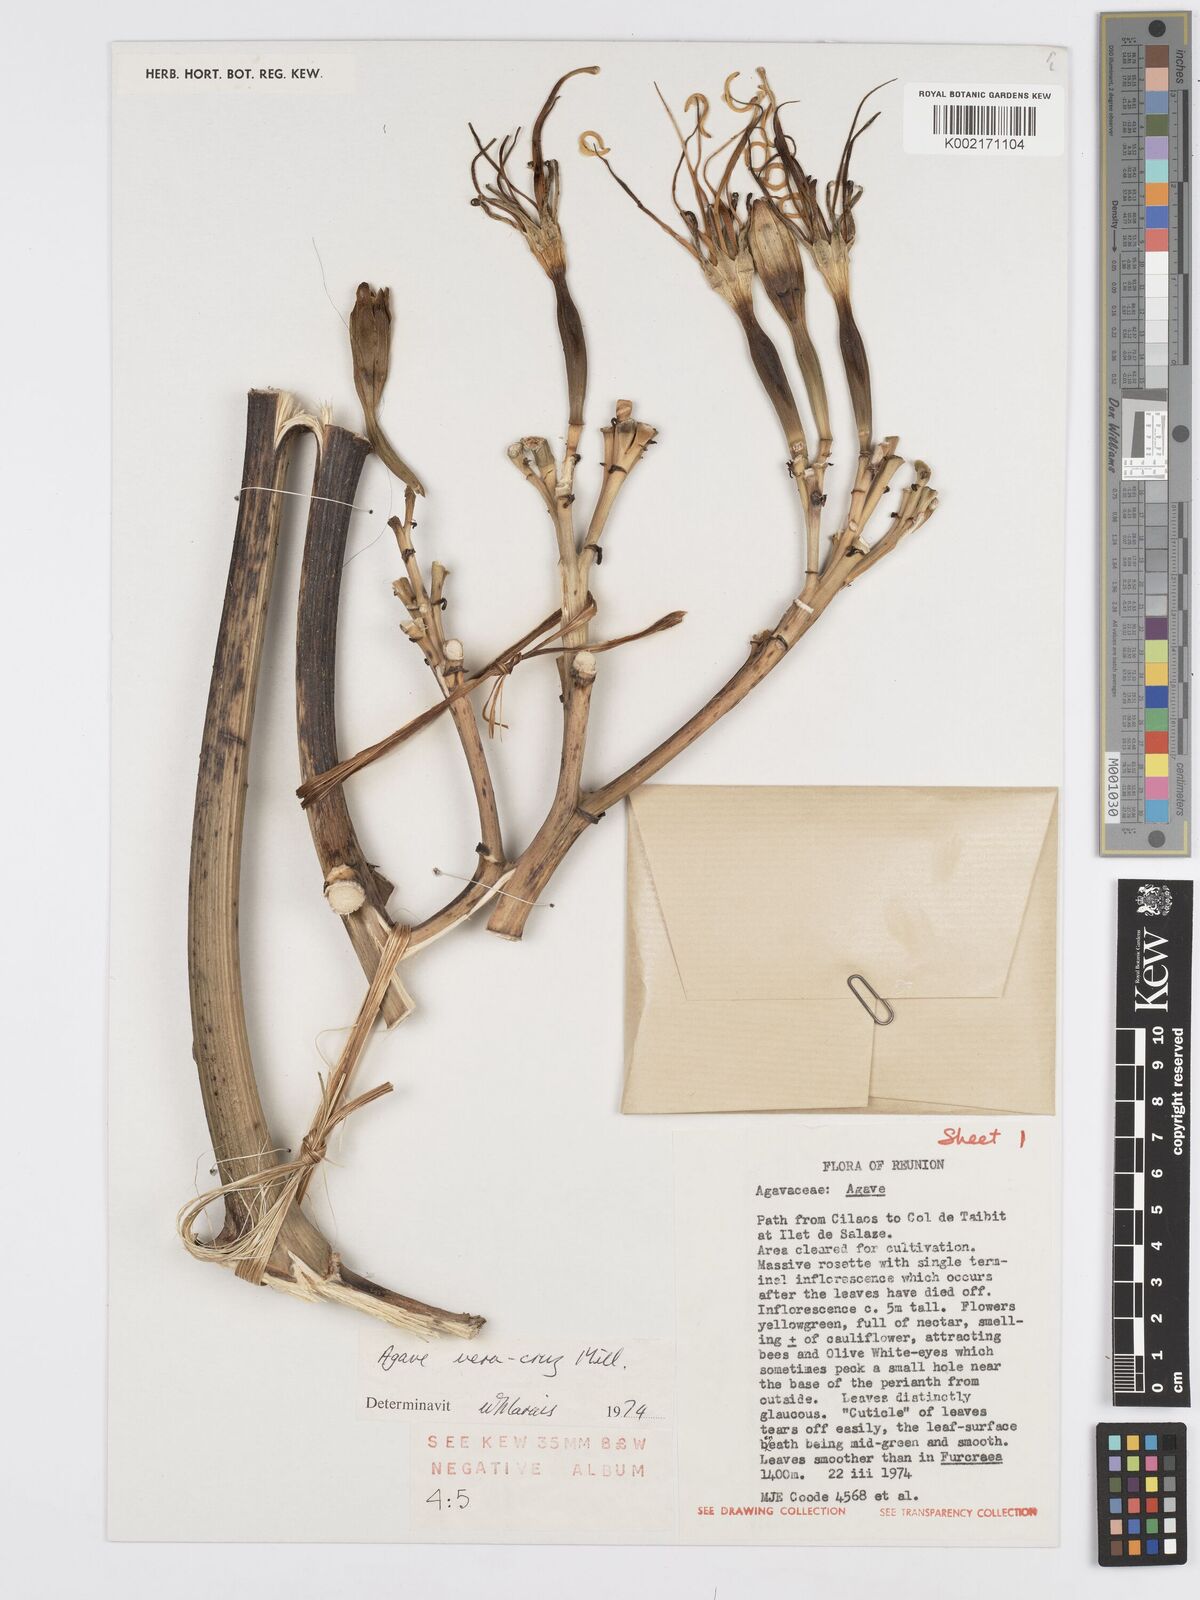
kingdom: Plantae
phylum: Tracheophyta
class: Liliopsida
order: Asparagales
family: Asparagaceae
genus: Agave
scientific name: Agave vera-cruz
